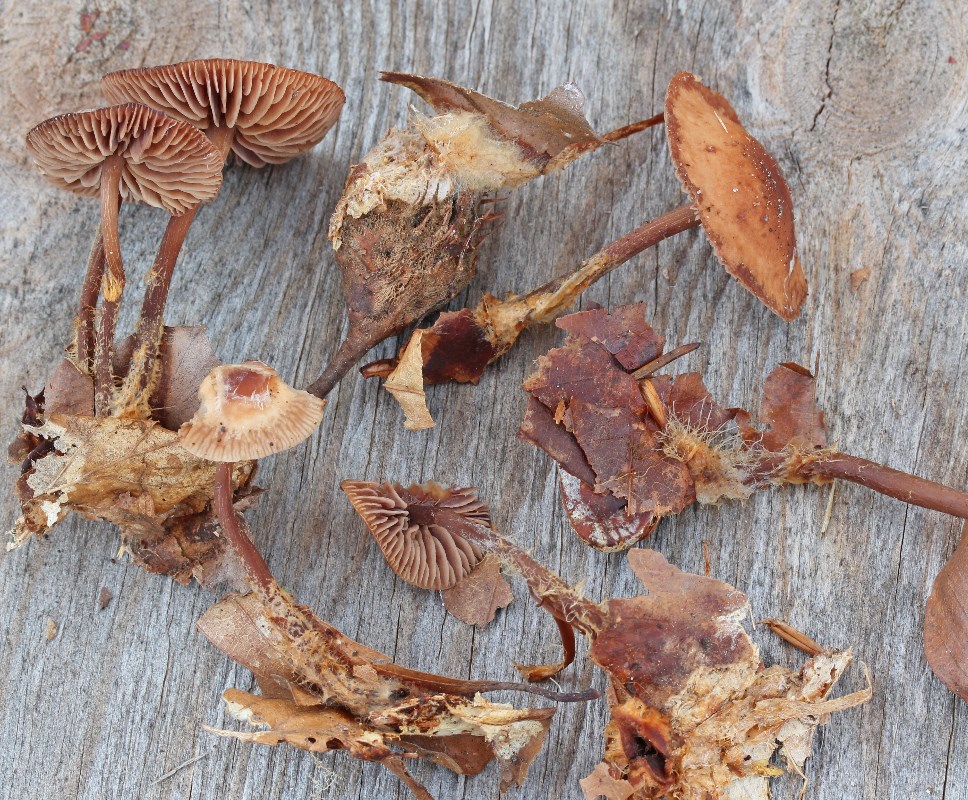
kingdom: Fungi
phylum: Basidiomycota
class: Agaricomycetes
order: Agaricales
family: Omphalotaceae
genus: Gymnopus
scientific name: Gymnopus fagiphilus
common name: bøgeløv-fladhat
